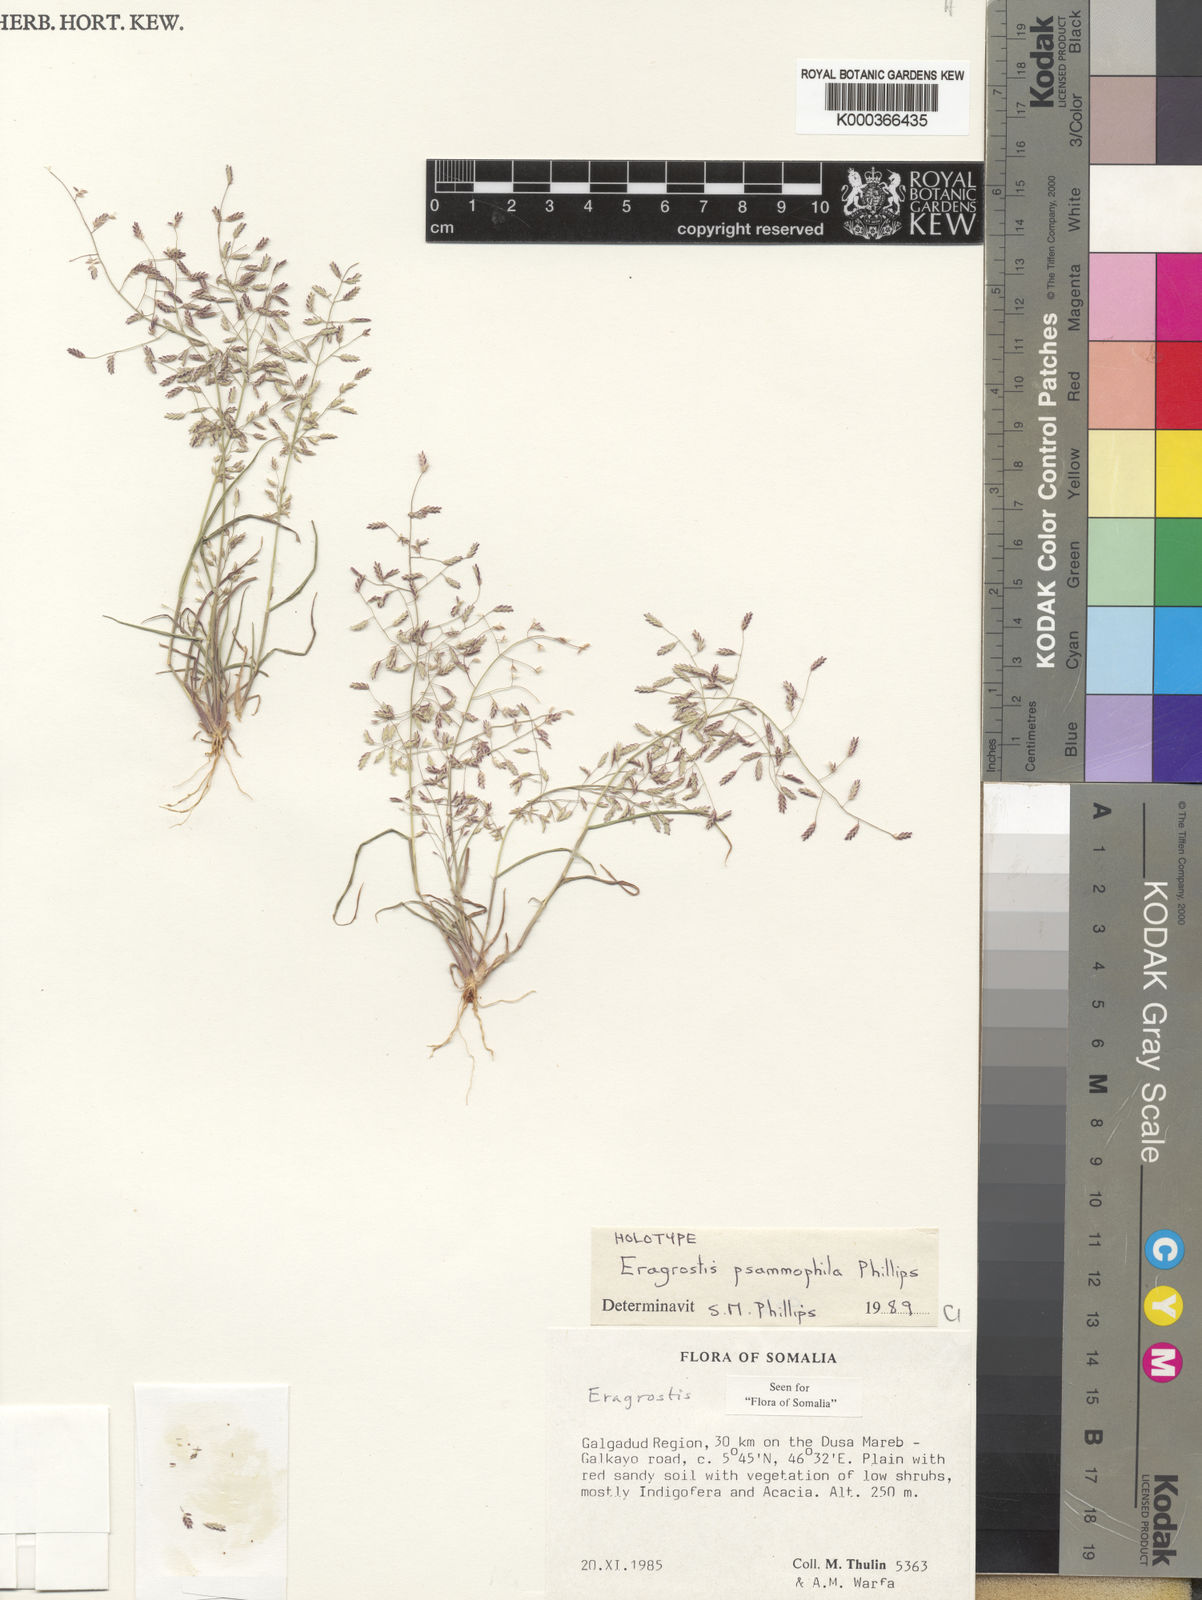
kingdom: Plantae
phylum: Tracheophyta
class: Liliopsida
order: Poales
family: Poaceae
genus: Eragrostis
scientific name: Eragrostis psammophila
